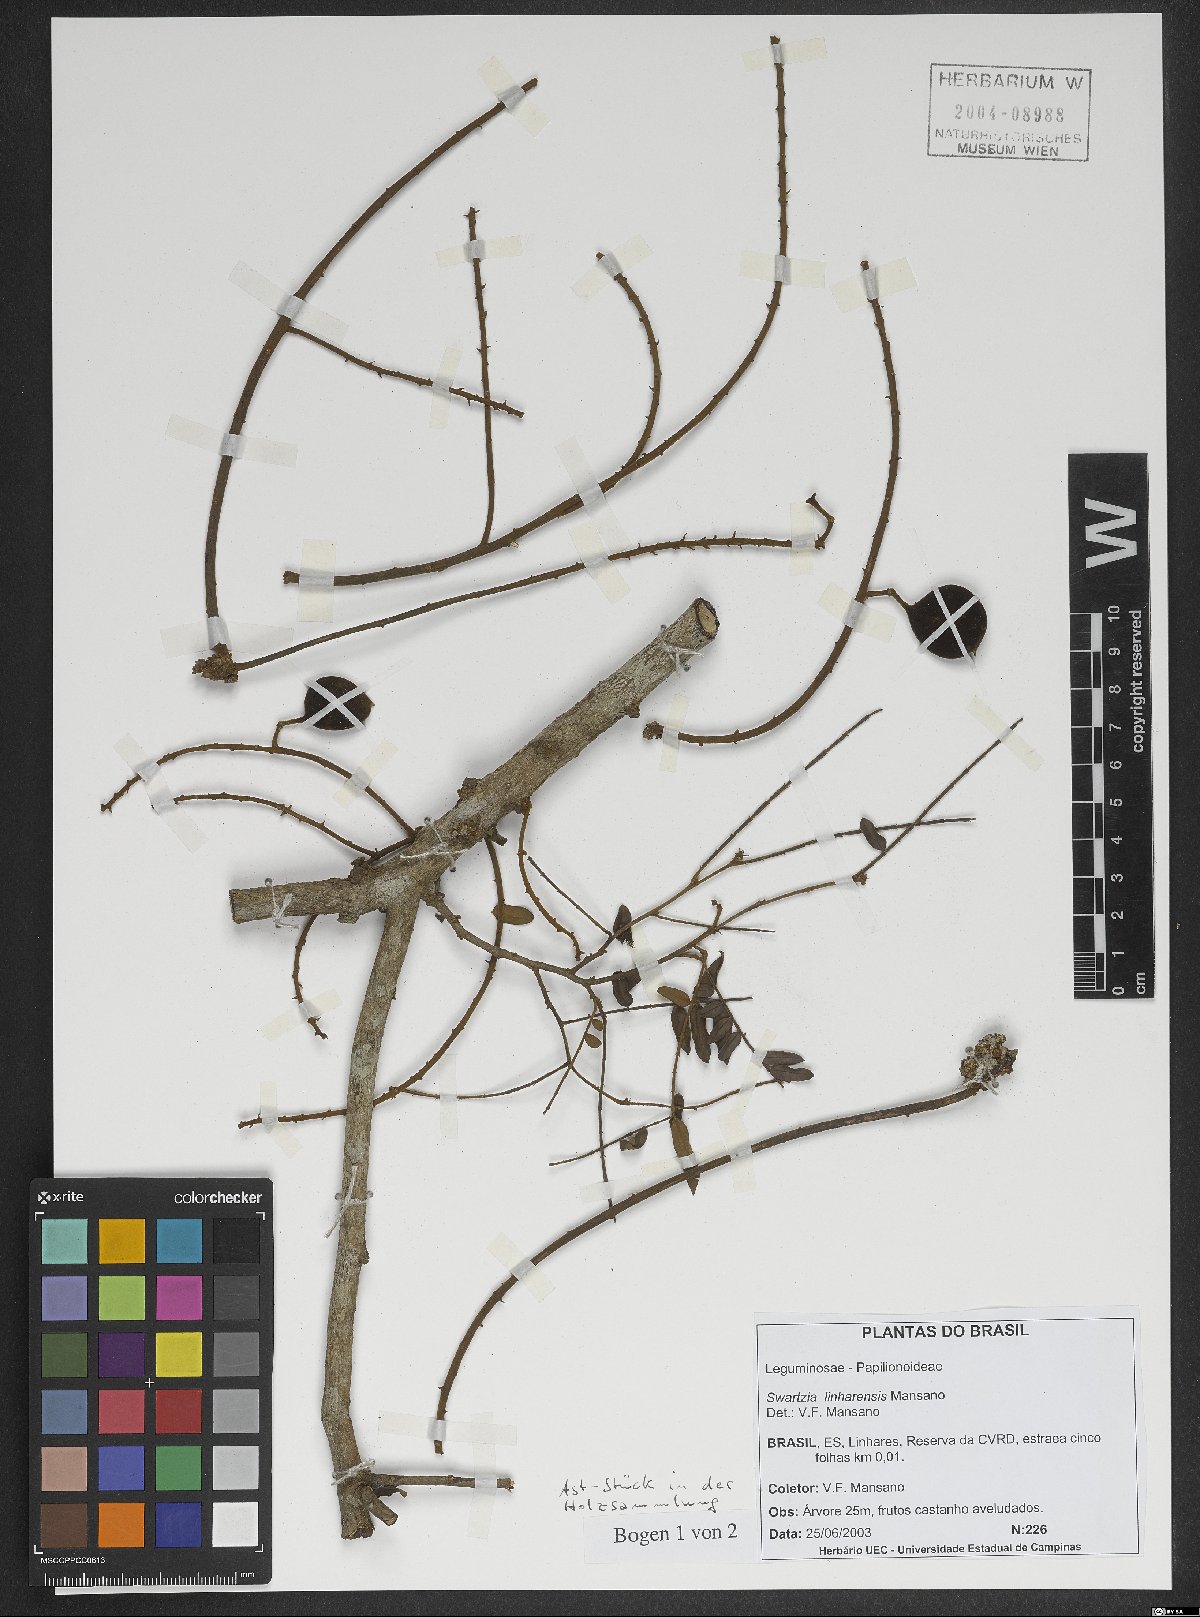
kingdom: Plantae
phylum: Tracheophyta
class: Magnoliopsida
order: Fabales
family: Fabaceae
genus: Swartzia
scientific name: Swartzia linharensis
